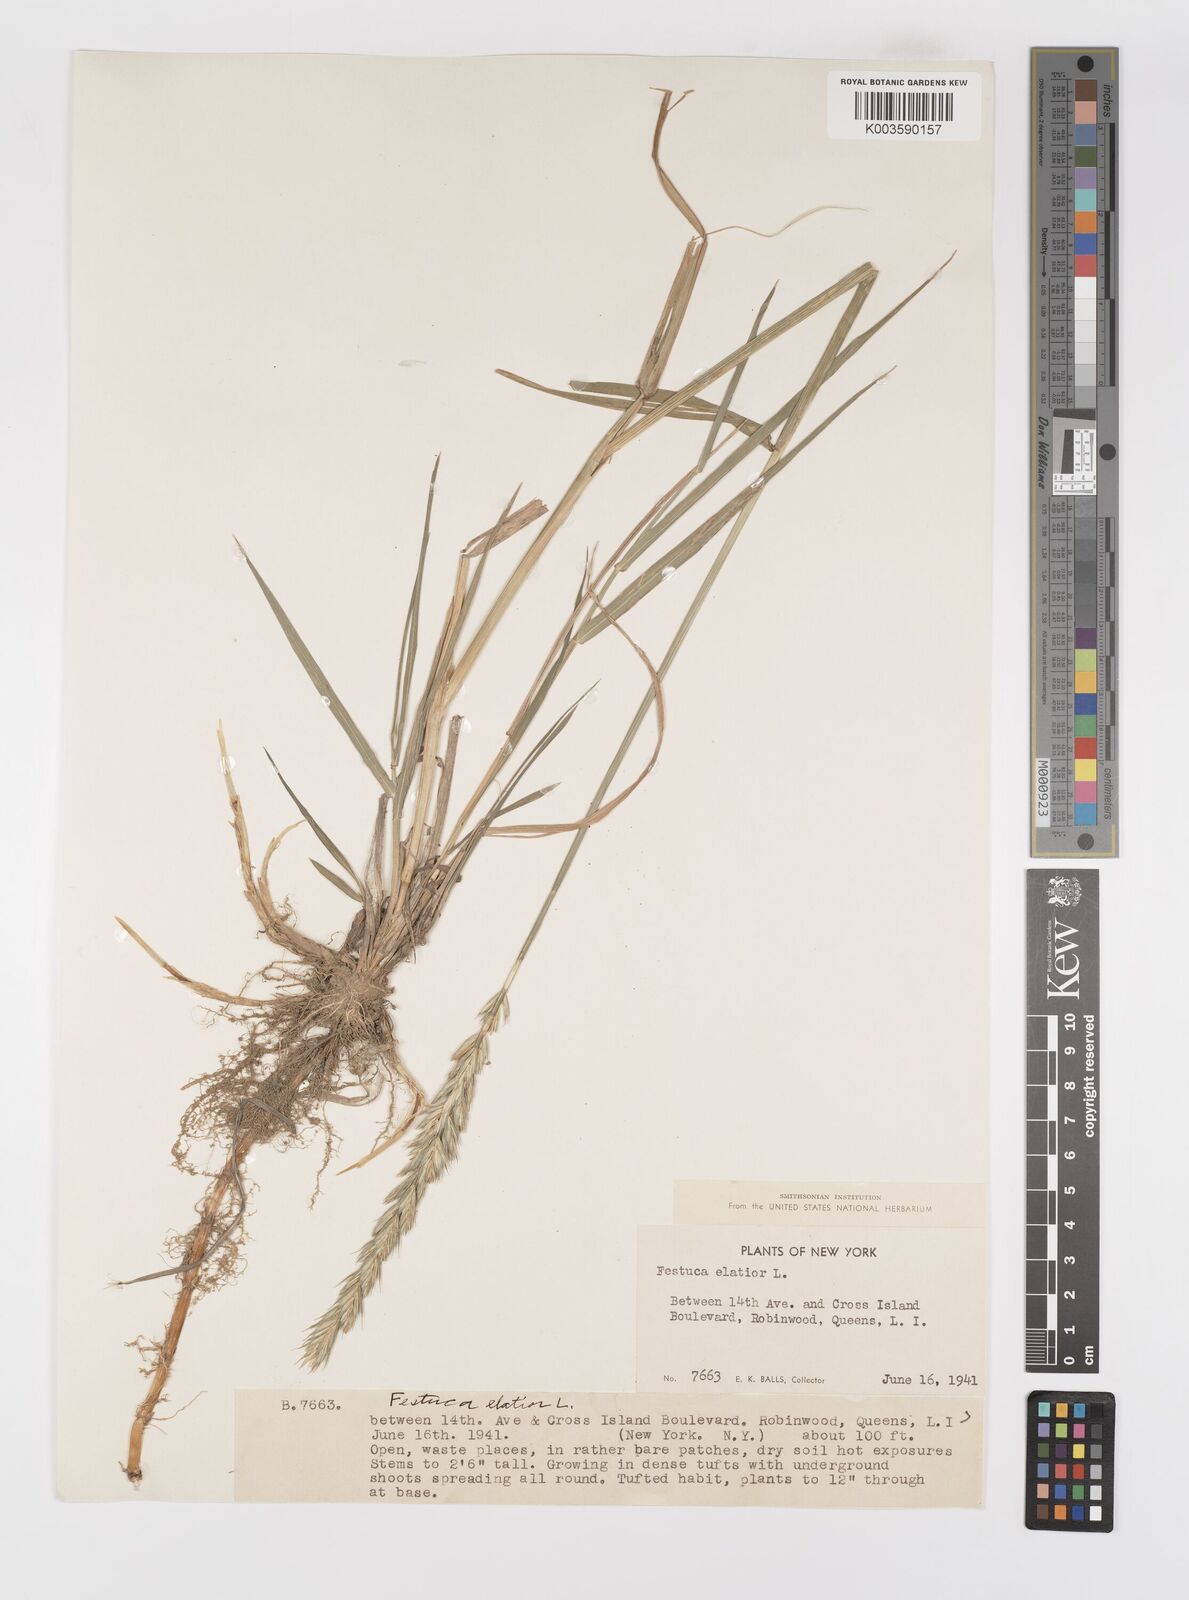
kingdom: Plantae
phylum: Tracheophyta
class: Liliopsida
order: Poales
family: Poaceae
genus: Elymus
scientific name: Elymus smithii
